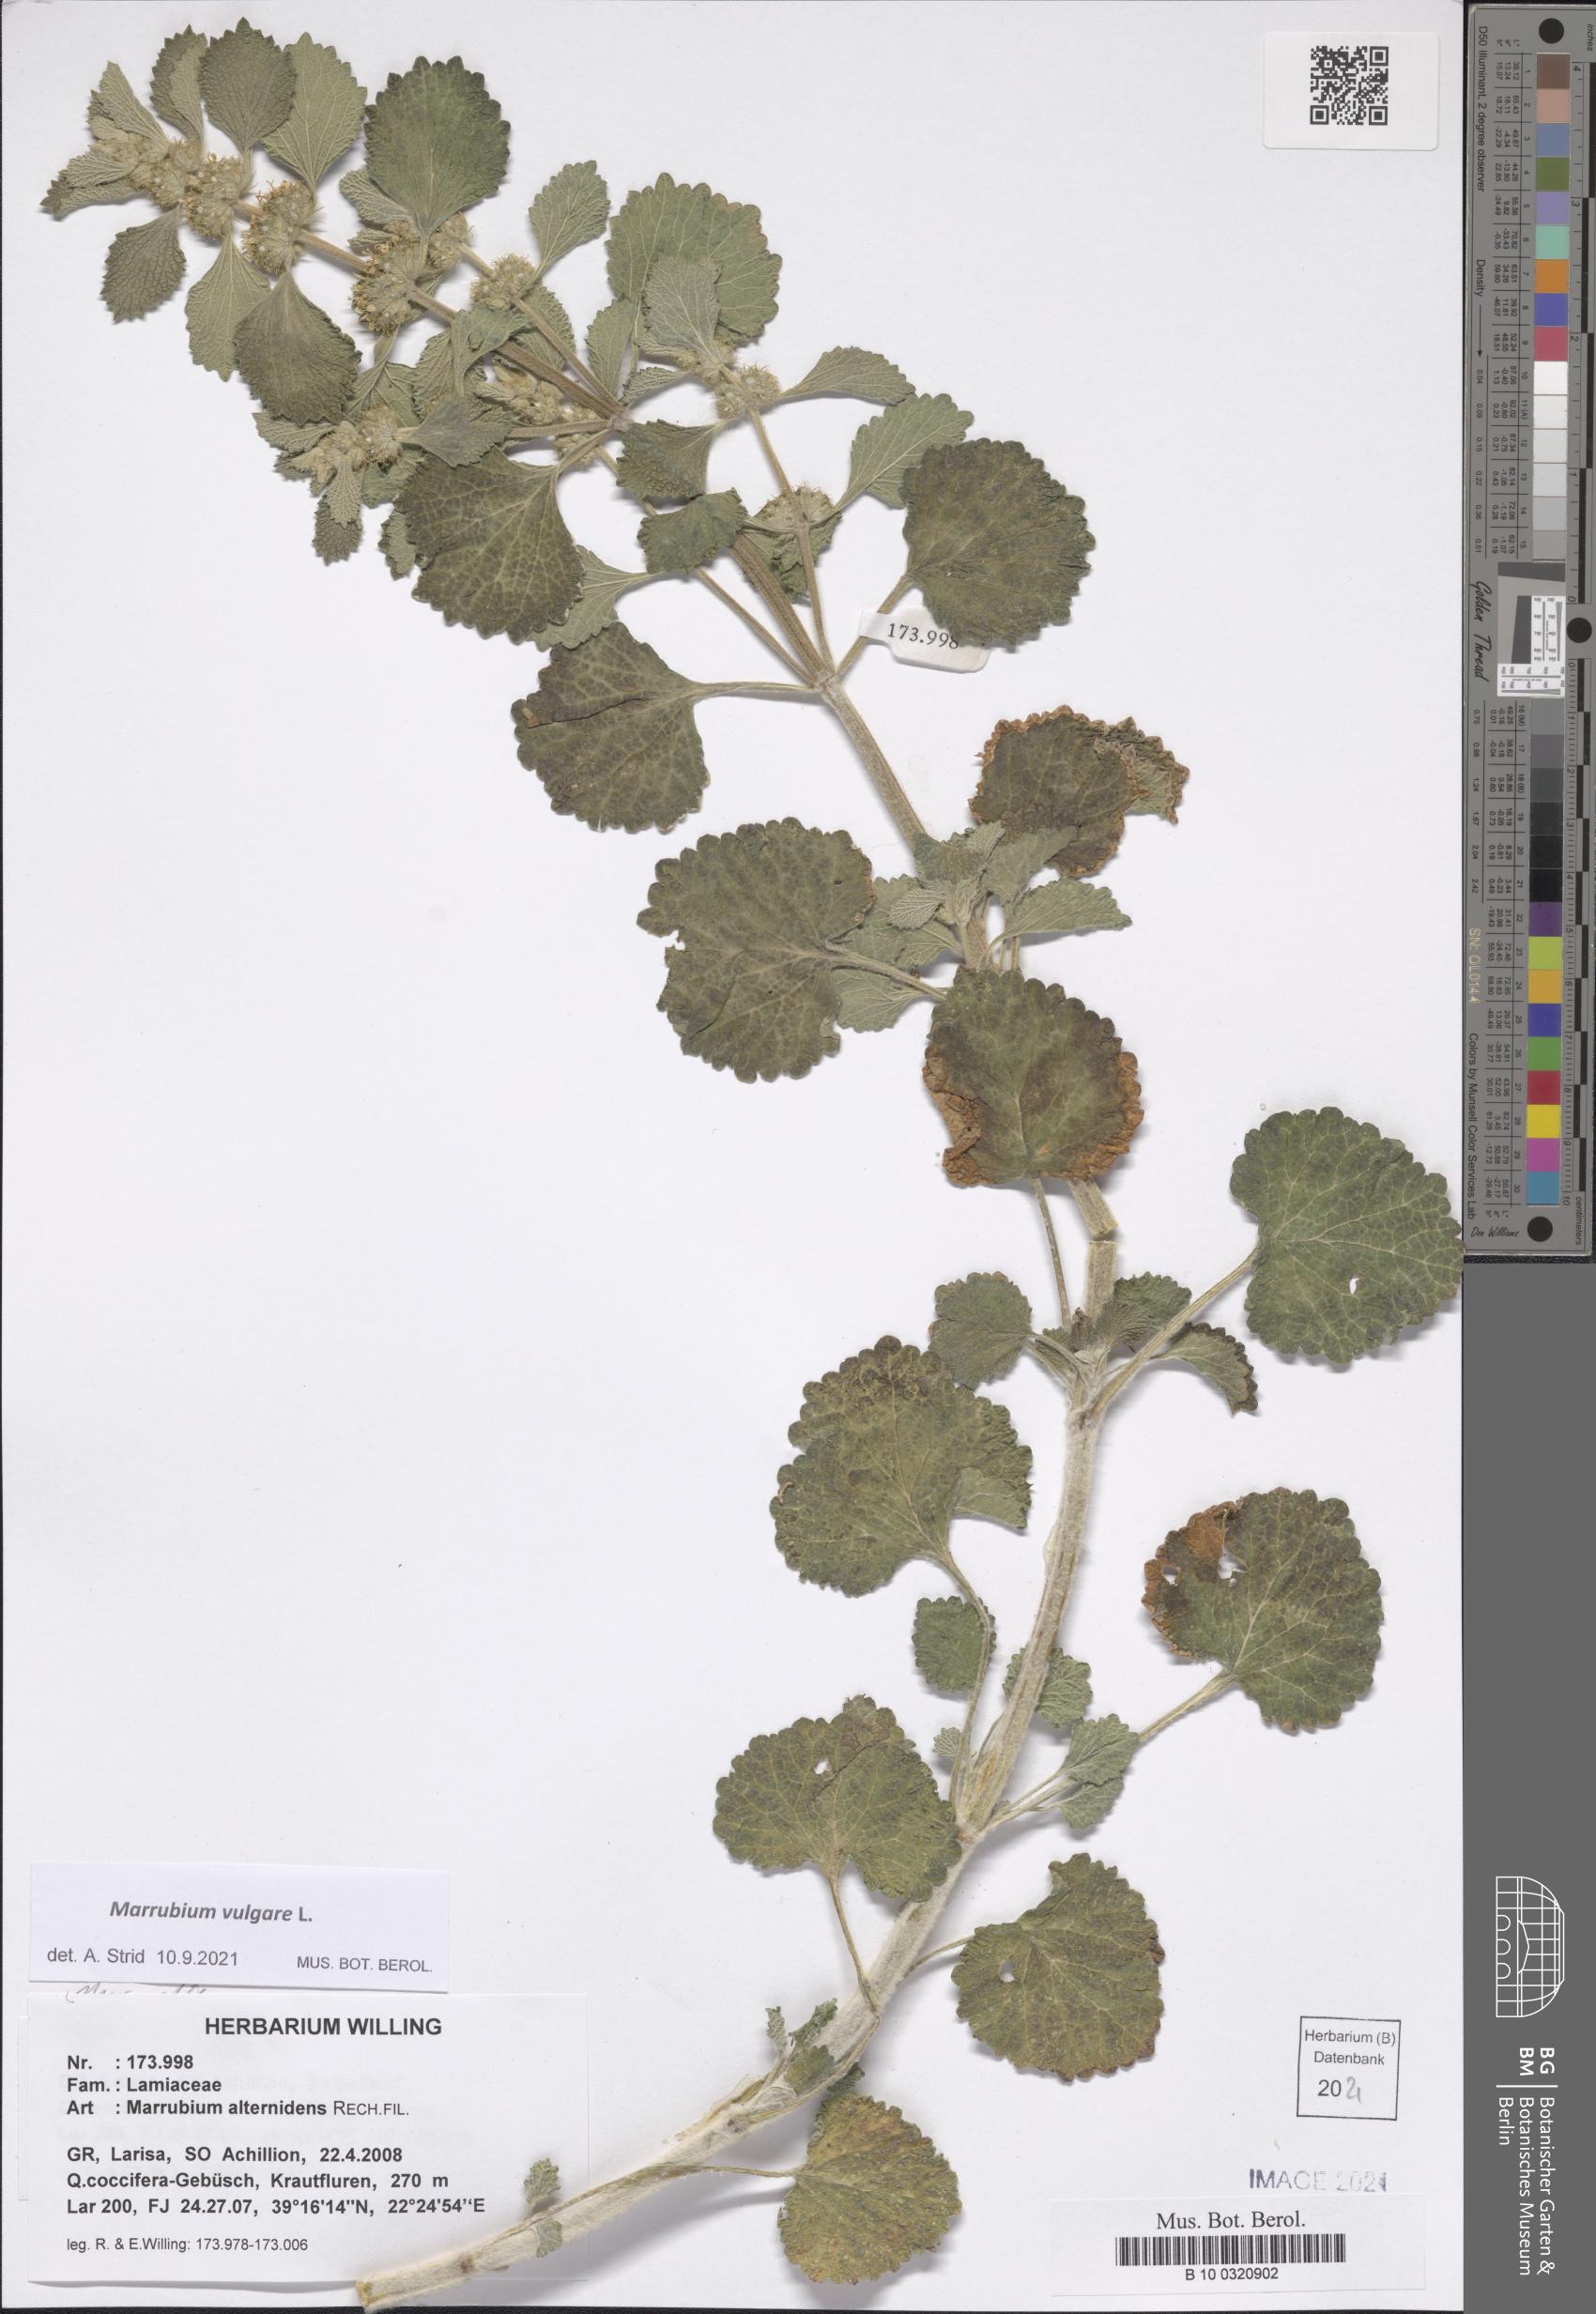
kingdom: Plantae
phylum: Tracheophyta
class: Magnoliopsida
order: Lamiales
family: Lamiaceae
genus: Marrubium
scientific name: Marrubium vulgare
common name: Horehound
